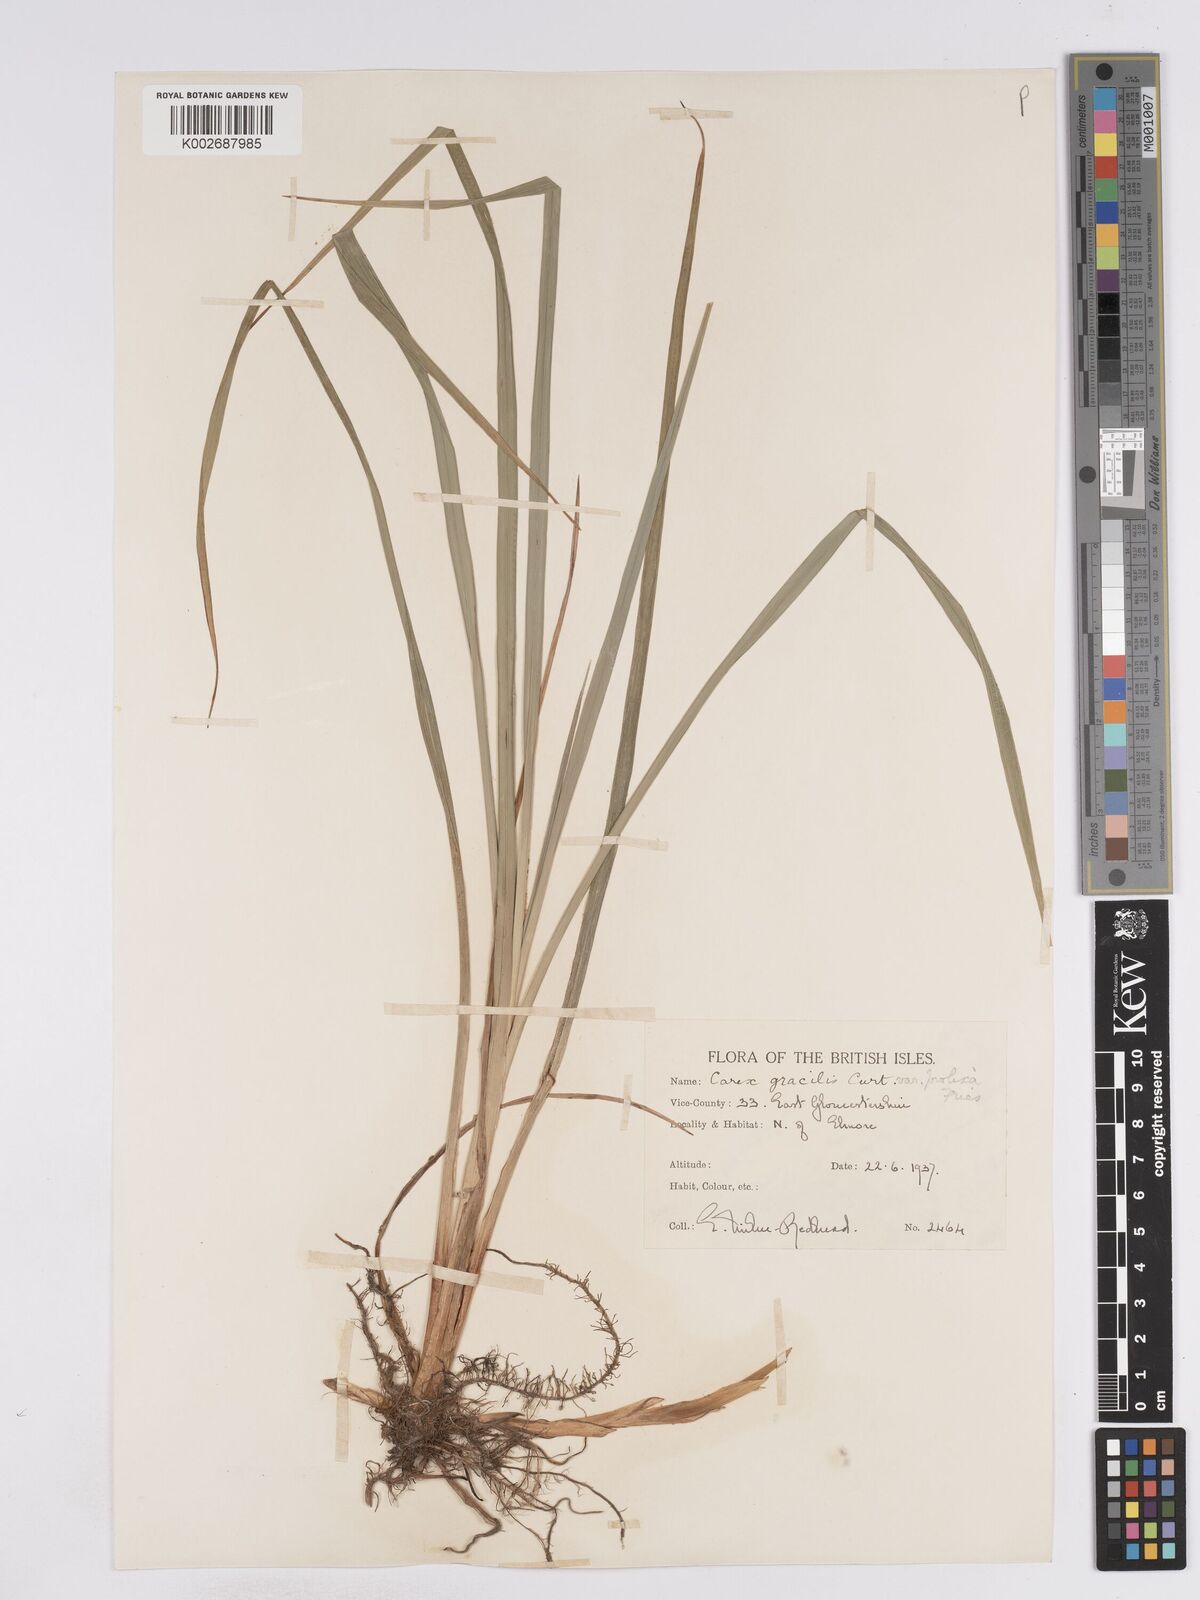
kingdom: Plantae
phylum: Tracheophyta
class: Liliopsida
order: Poales
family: Cyperaceae
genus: Carex
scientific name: Carex acuta
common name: Slender tufted-sedge
